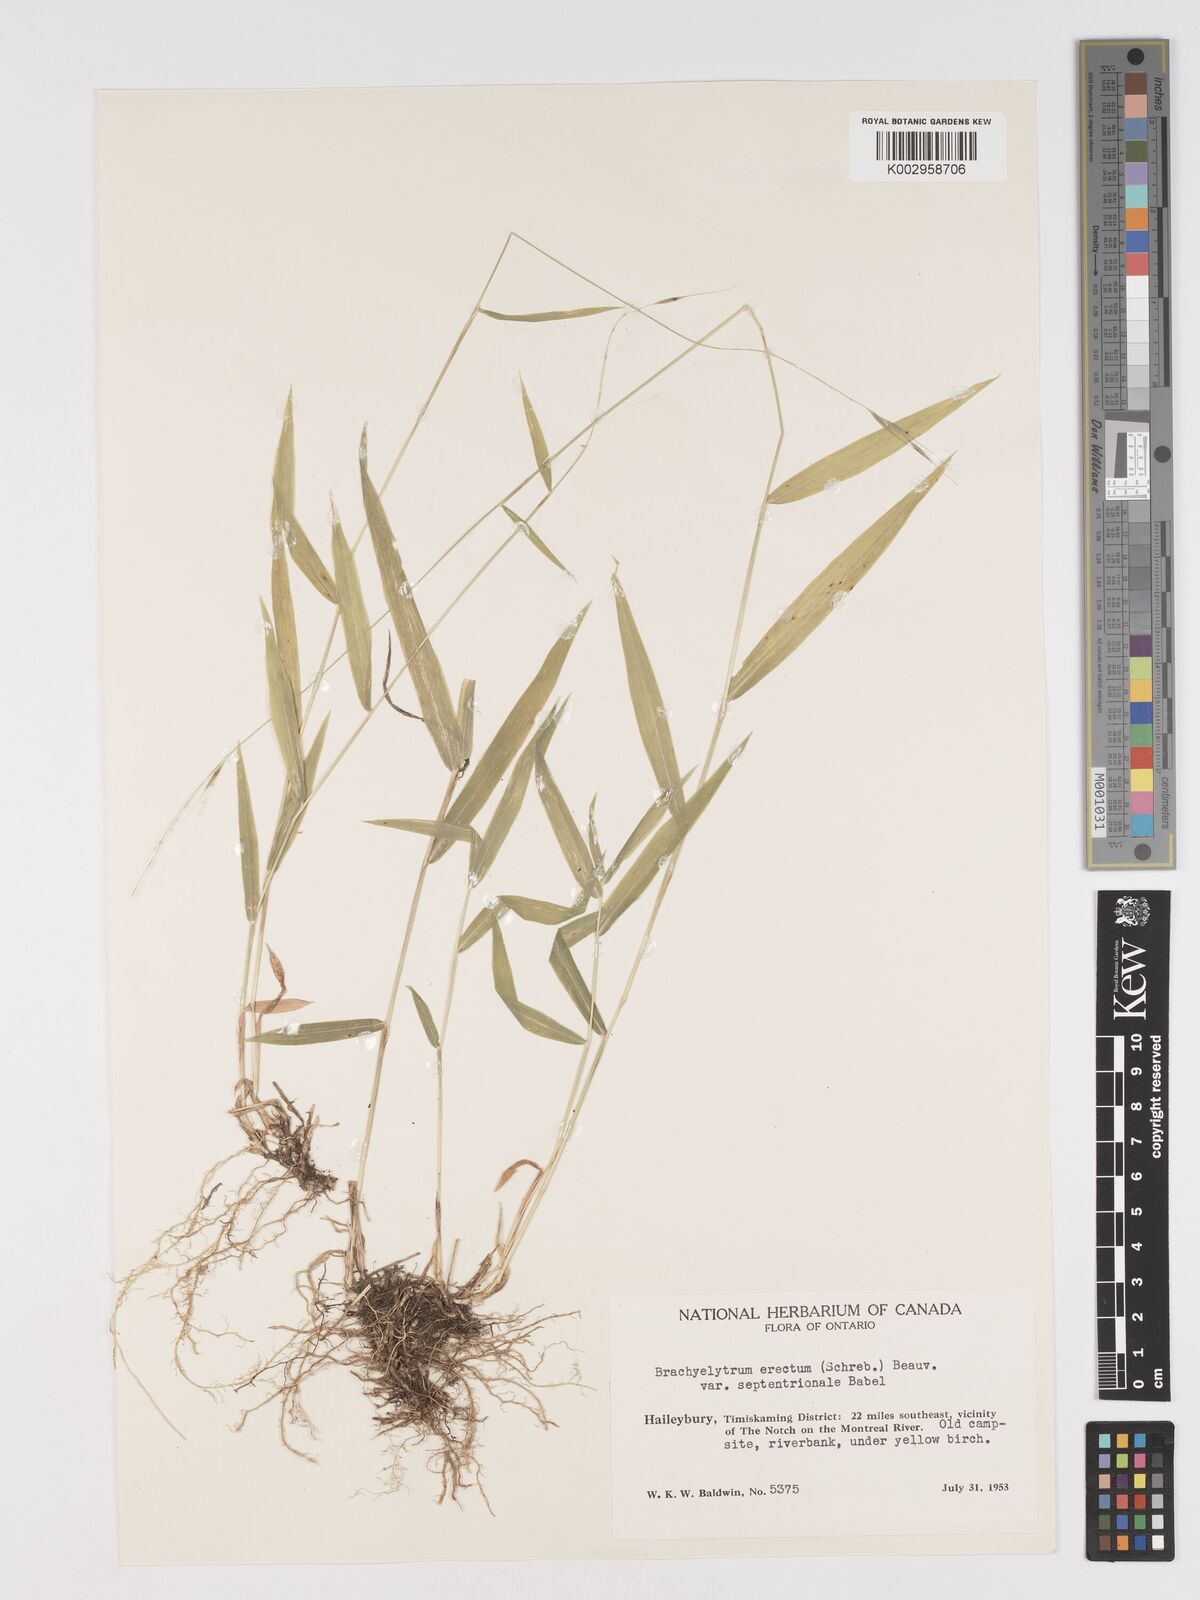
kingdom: Plantae
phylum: Tracheophyta
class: Liliopsida
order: Poales
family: Poaceae
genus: Brachyelytrum
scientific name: Brachyelytrum aristosum
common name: Northern shorthusk
